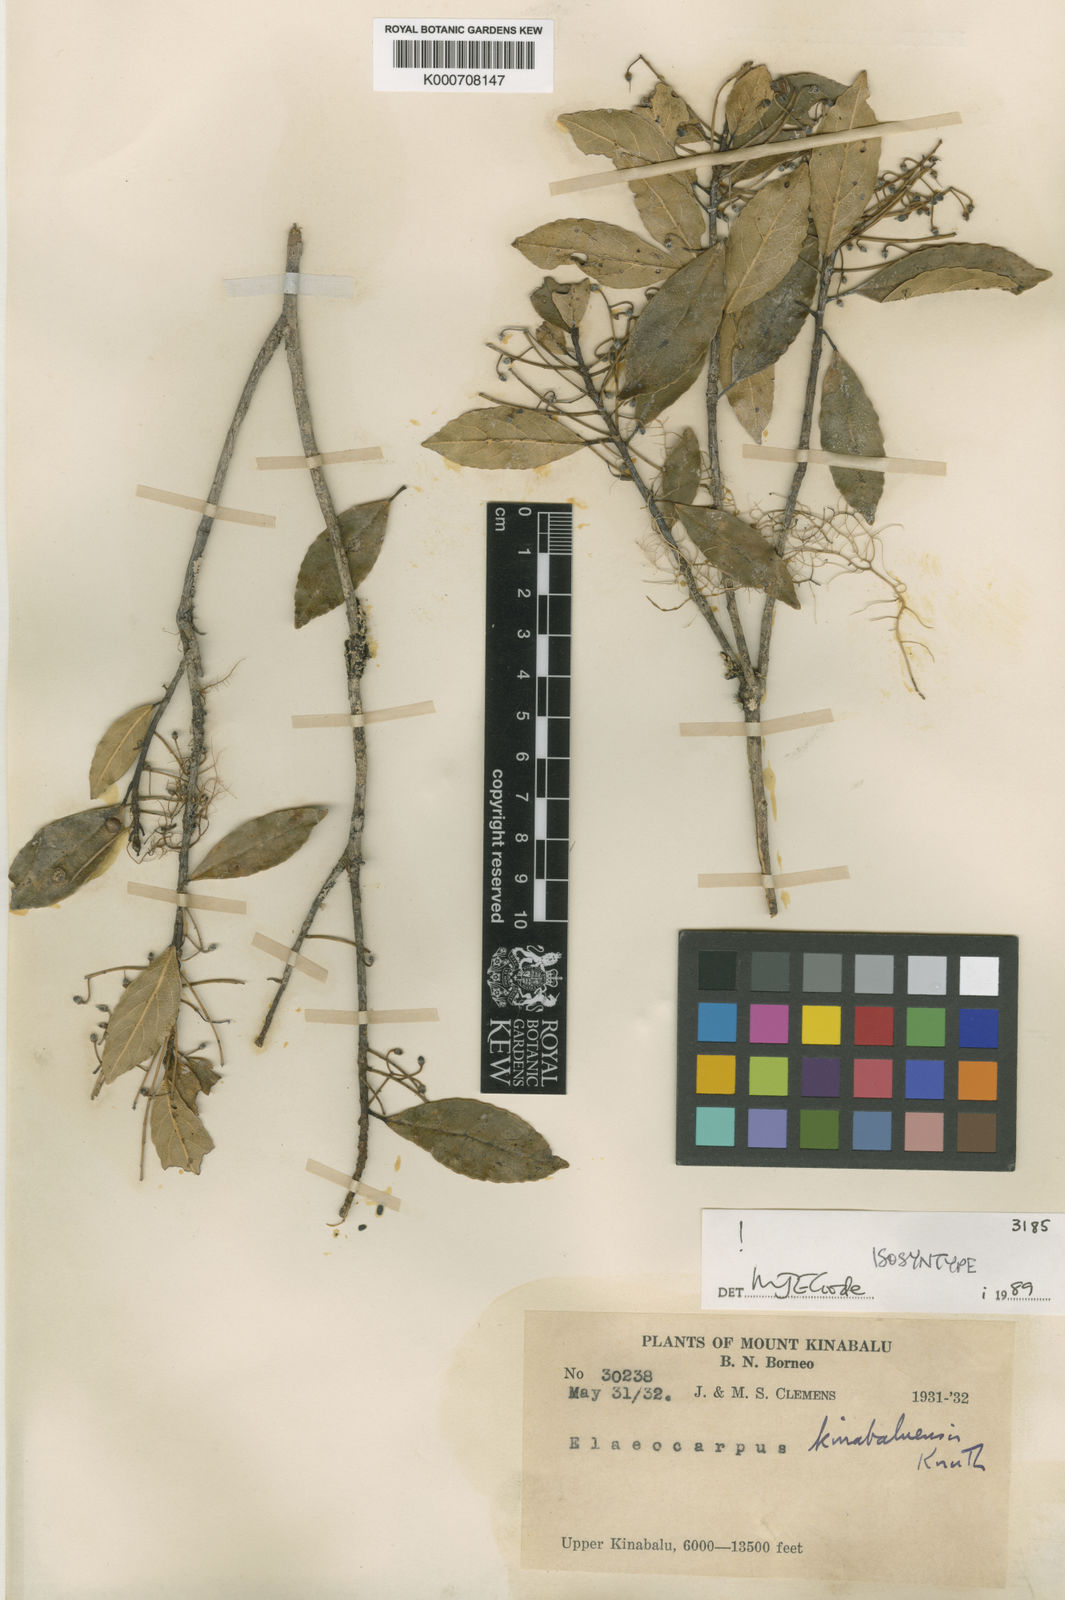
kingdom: Plantae
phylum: Tracheophyta
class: Magnoliopsida
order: Oxalidales
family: Elaeocarpaceae
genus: Elaeocarpus
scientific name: Elaeocarpus kinabaluensis
